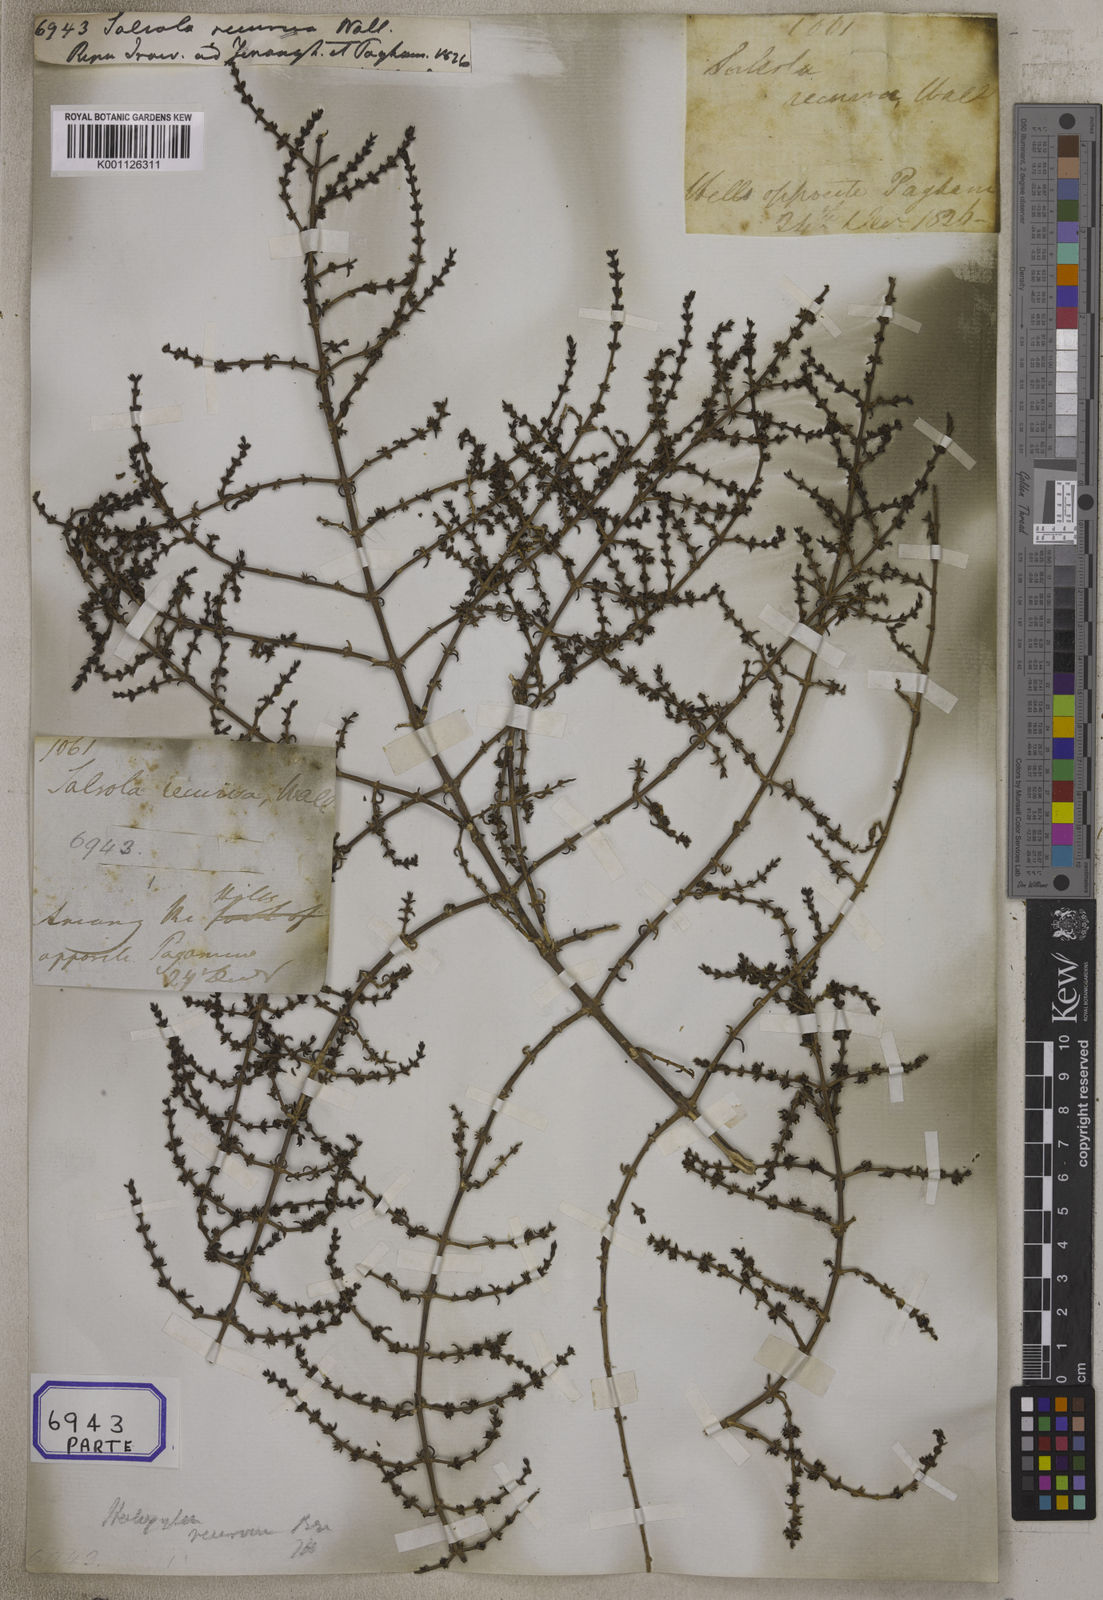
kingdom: Plantae
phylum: Tracheophyta
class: Magnoliopsida
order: Caryophyllales
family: Amaranthaceae
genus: Soda
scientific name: Soda stocksii
